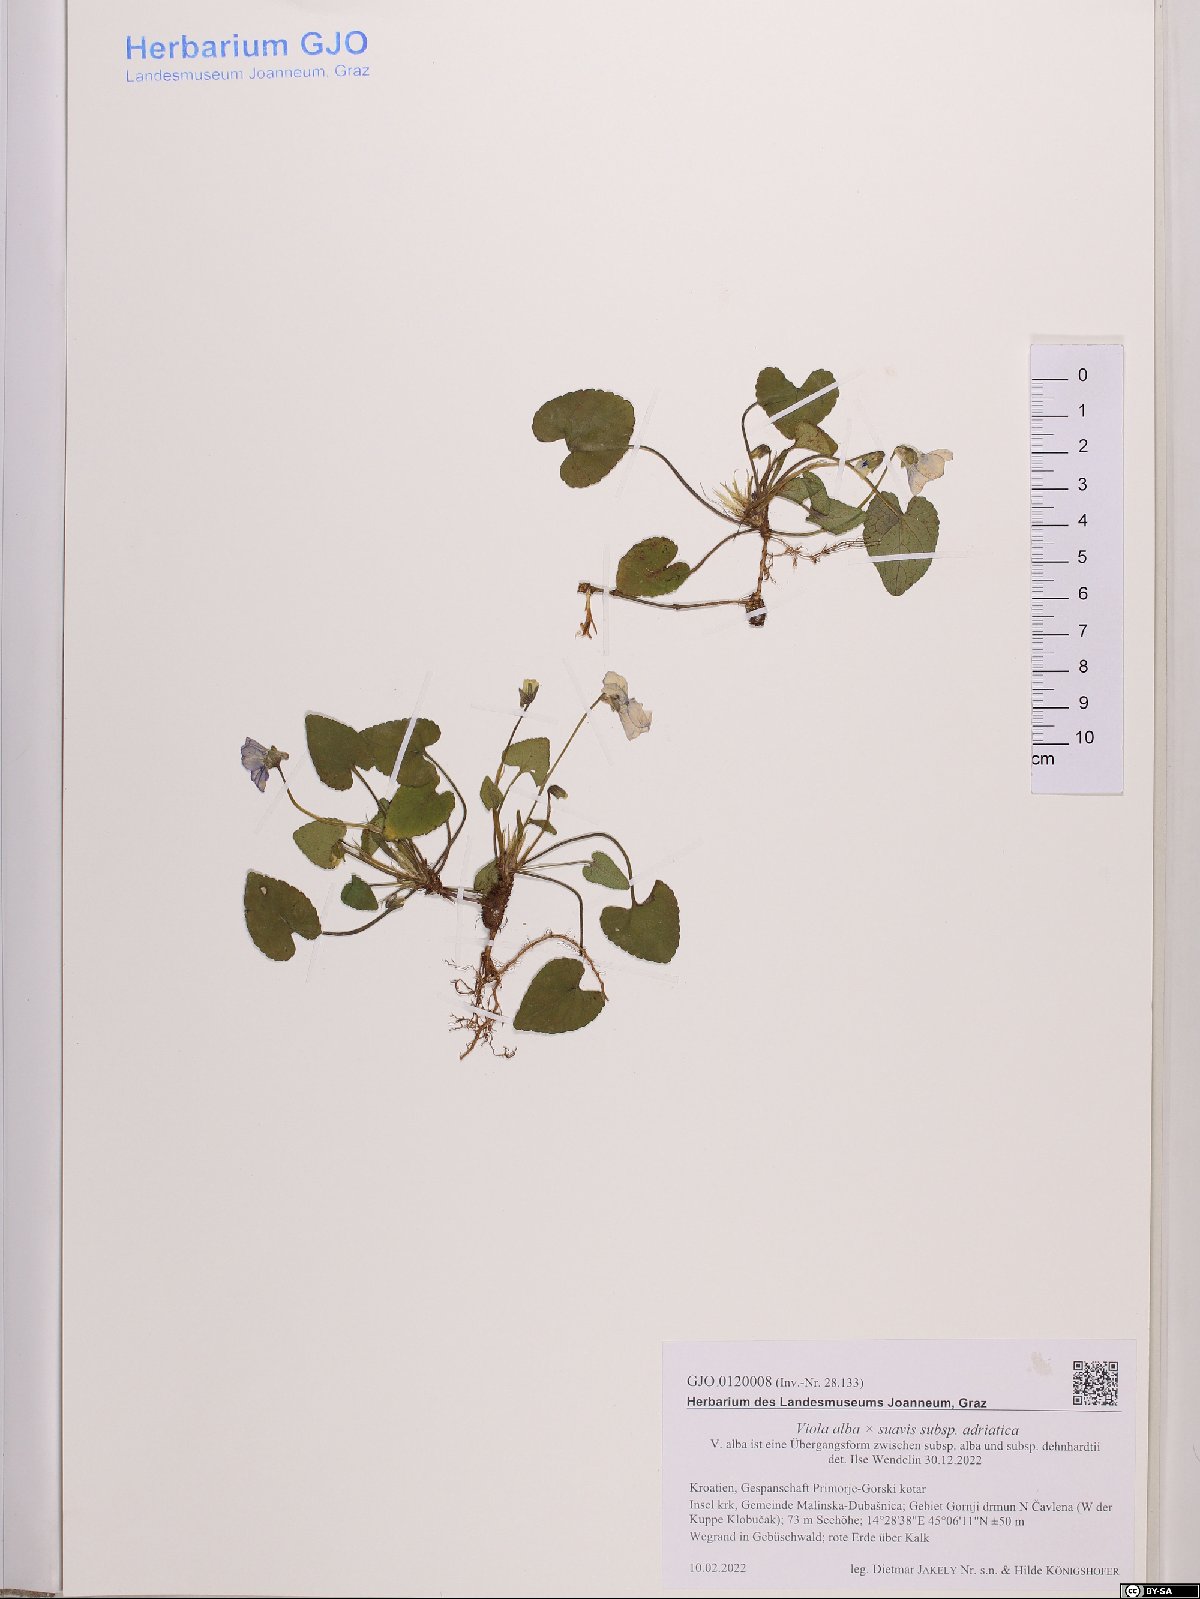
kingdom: Plantae
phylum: Tracheophyta
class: Magnoliopsida
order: Malpighiales
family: Violaceae
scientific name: Violaceae
